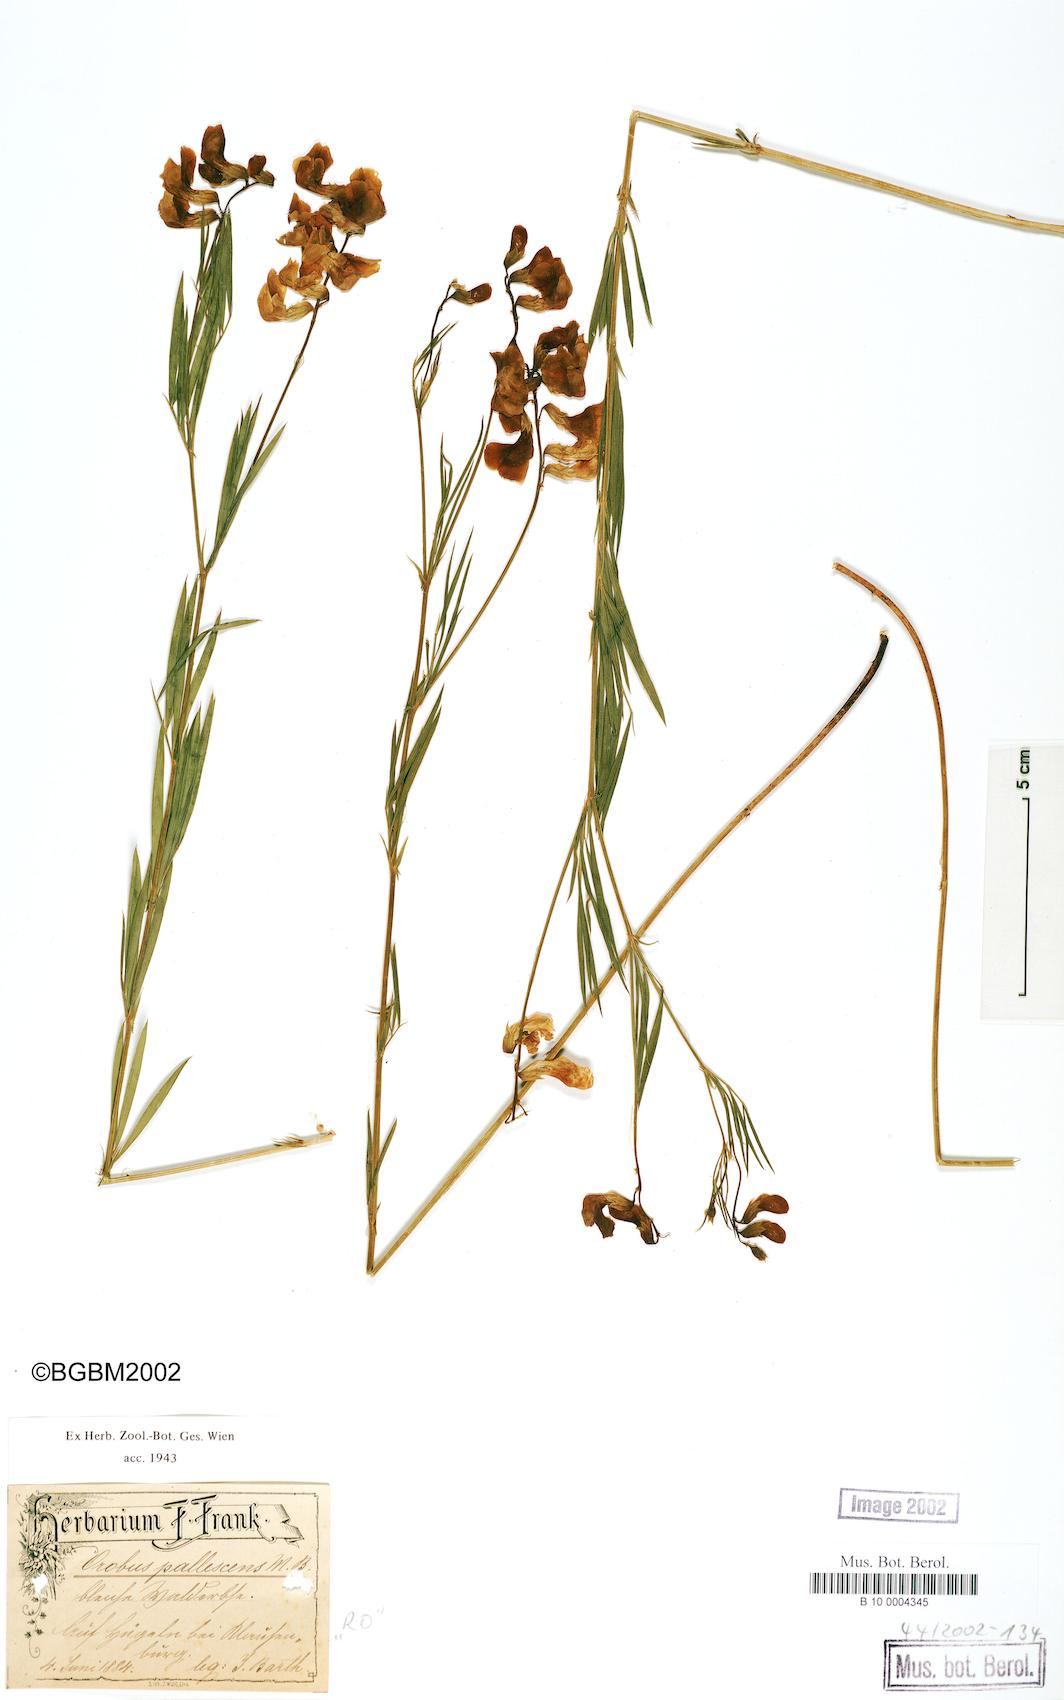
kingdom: Plantae
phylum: Tracheophyta
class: Magnoliopsida
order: Fabales
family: Fabaceae
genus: Lathyrus
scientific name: Lathyrus pallescens
